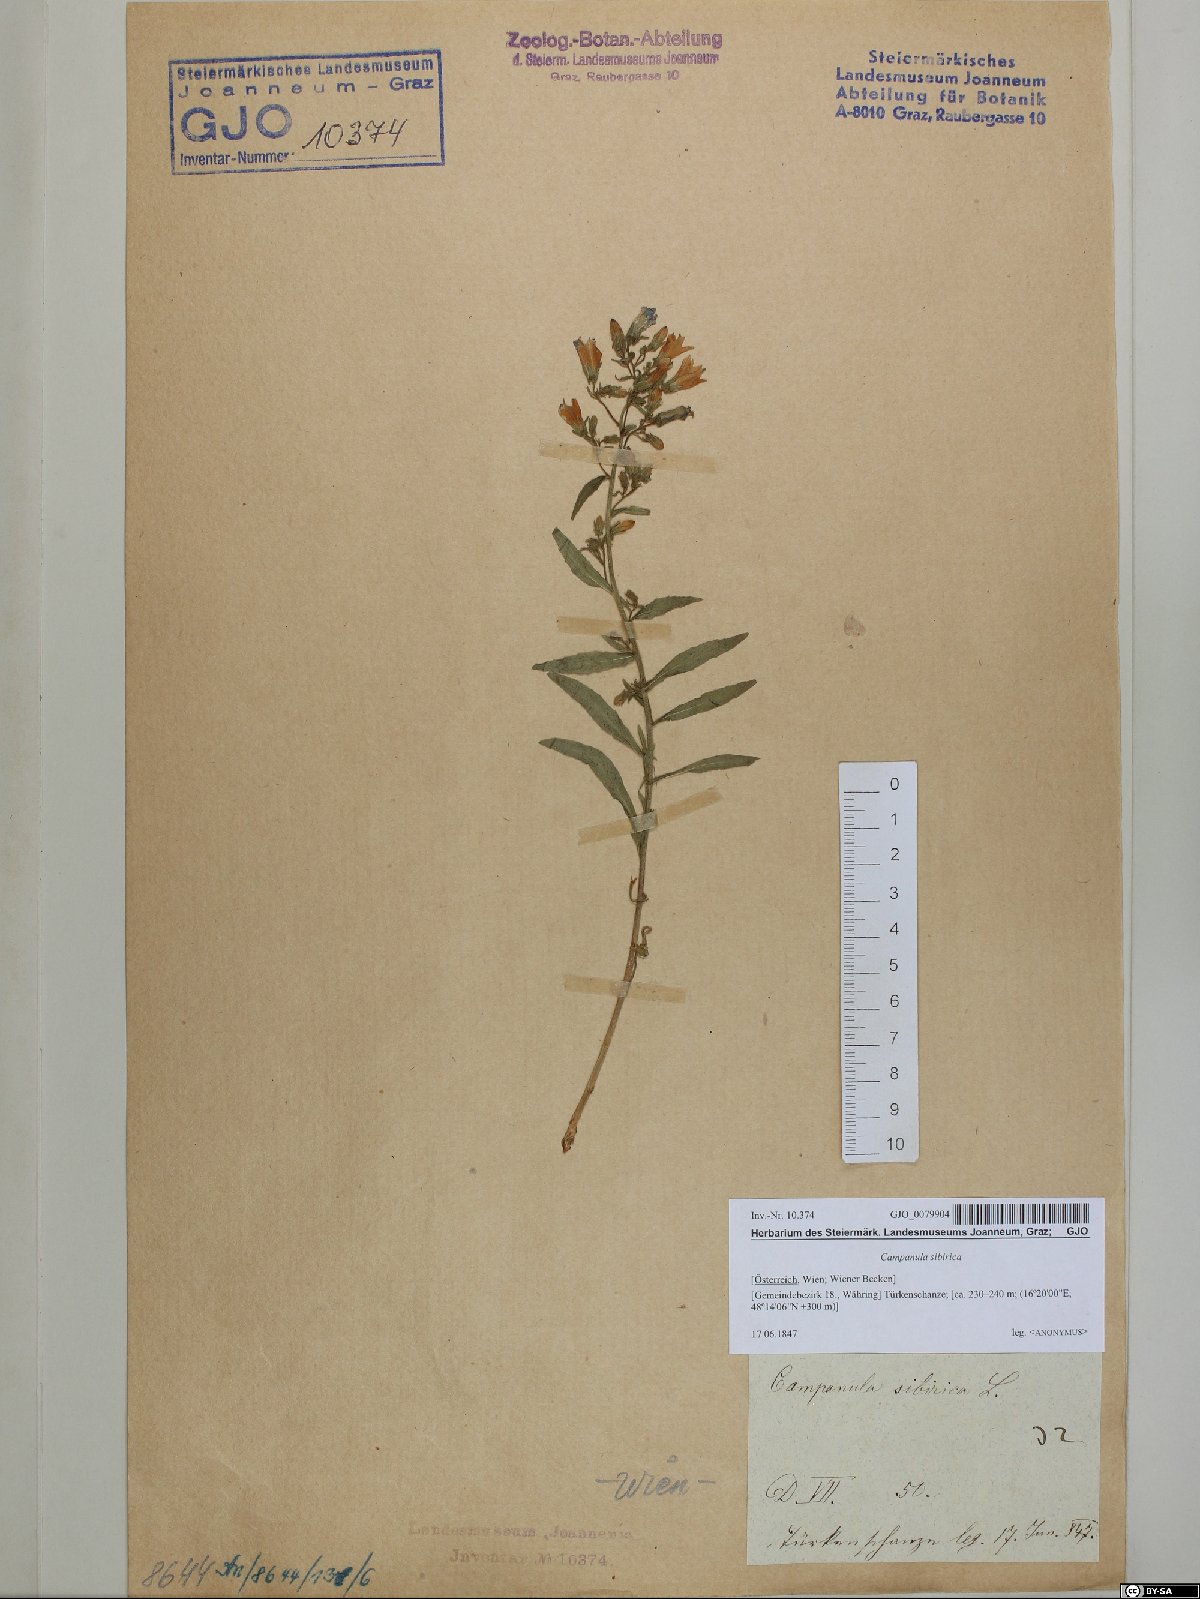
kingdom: Plantae
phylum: Tracheophyta
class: Magnoliopsida
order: Asterales
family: Campanulaceae
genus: Campanula
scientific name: Campanula sibirica
